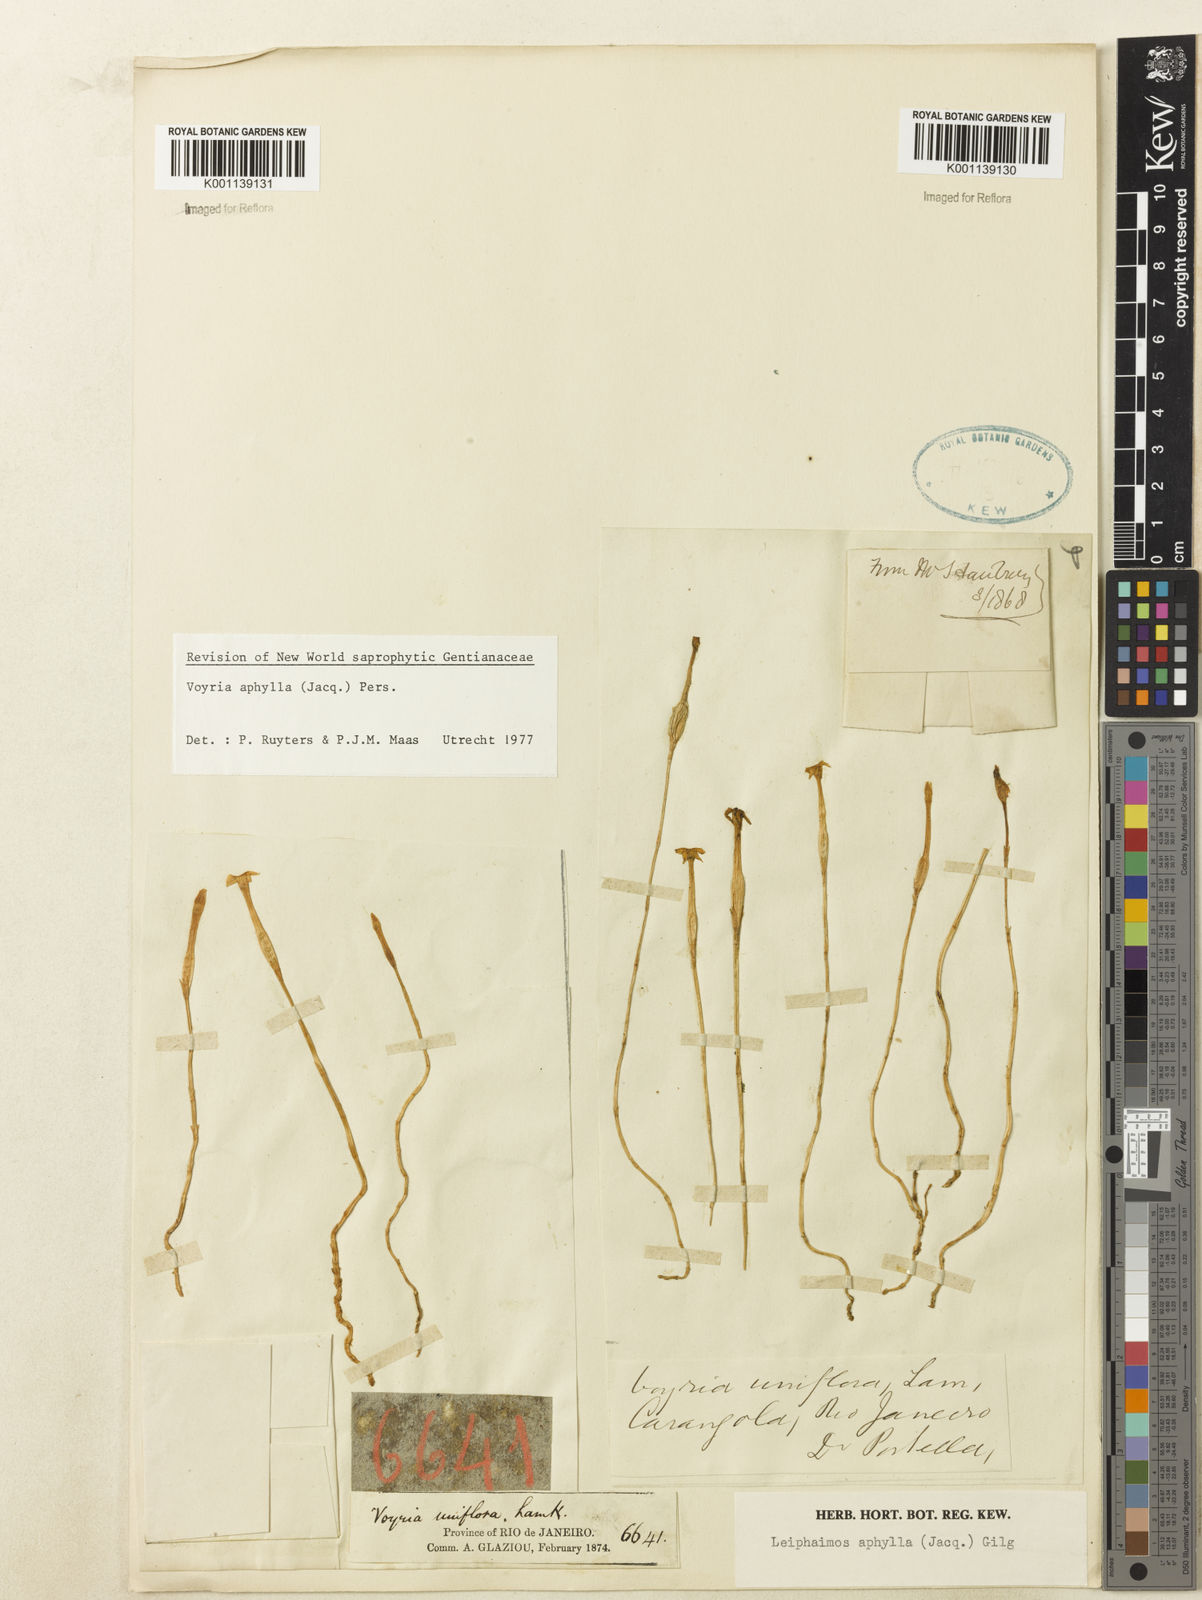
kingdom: Plantae
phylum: Tracheophyta
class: Magnoliopsida
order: Gentianales
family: Gentianaceae
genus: Voyria
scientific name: Voyria aphylla
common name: Leafless ghost plant
